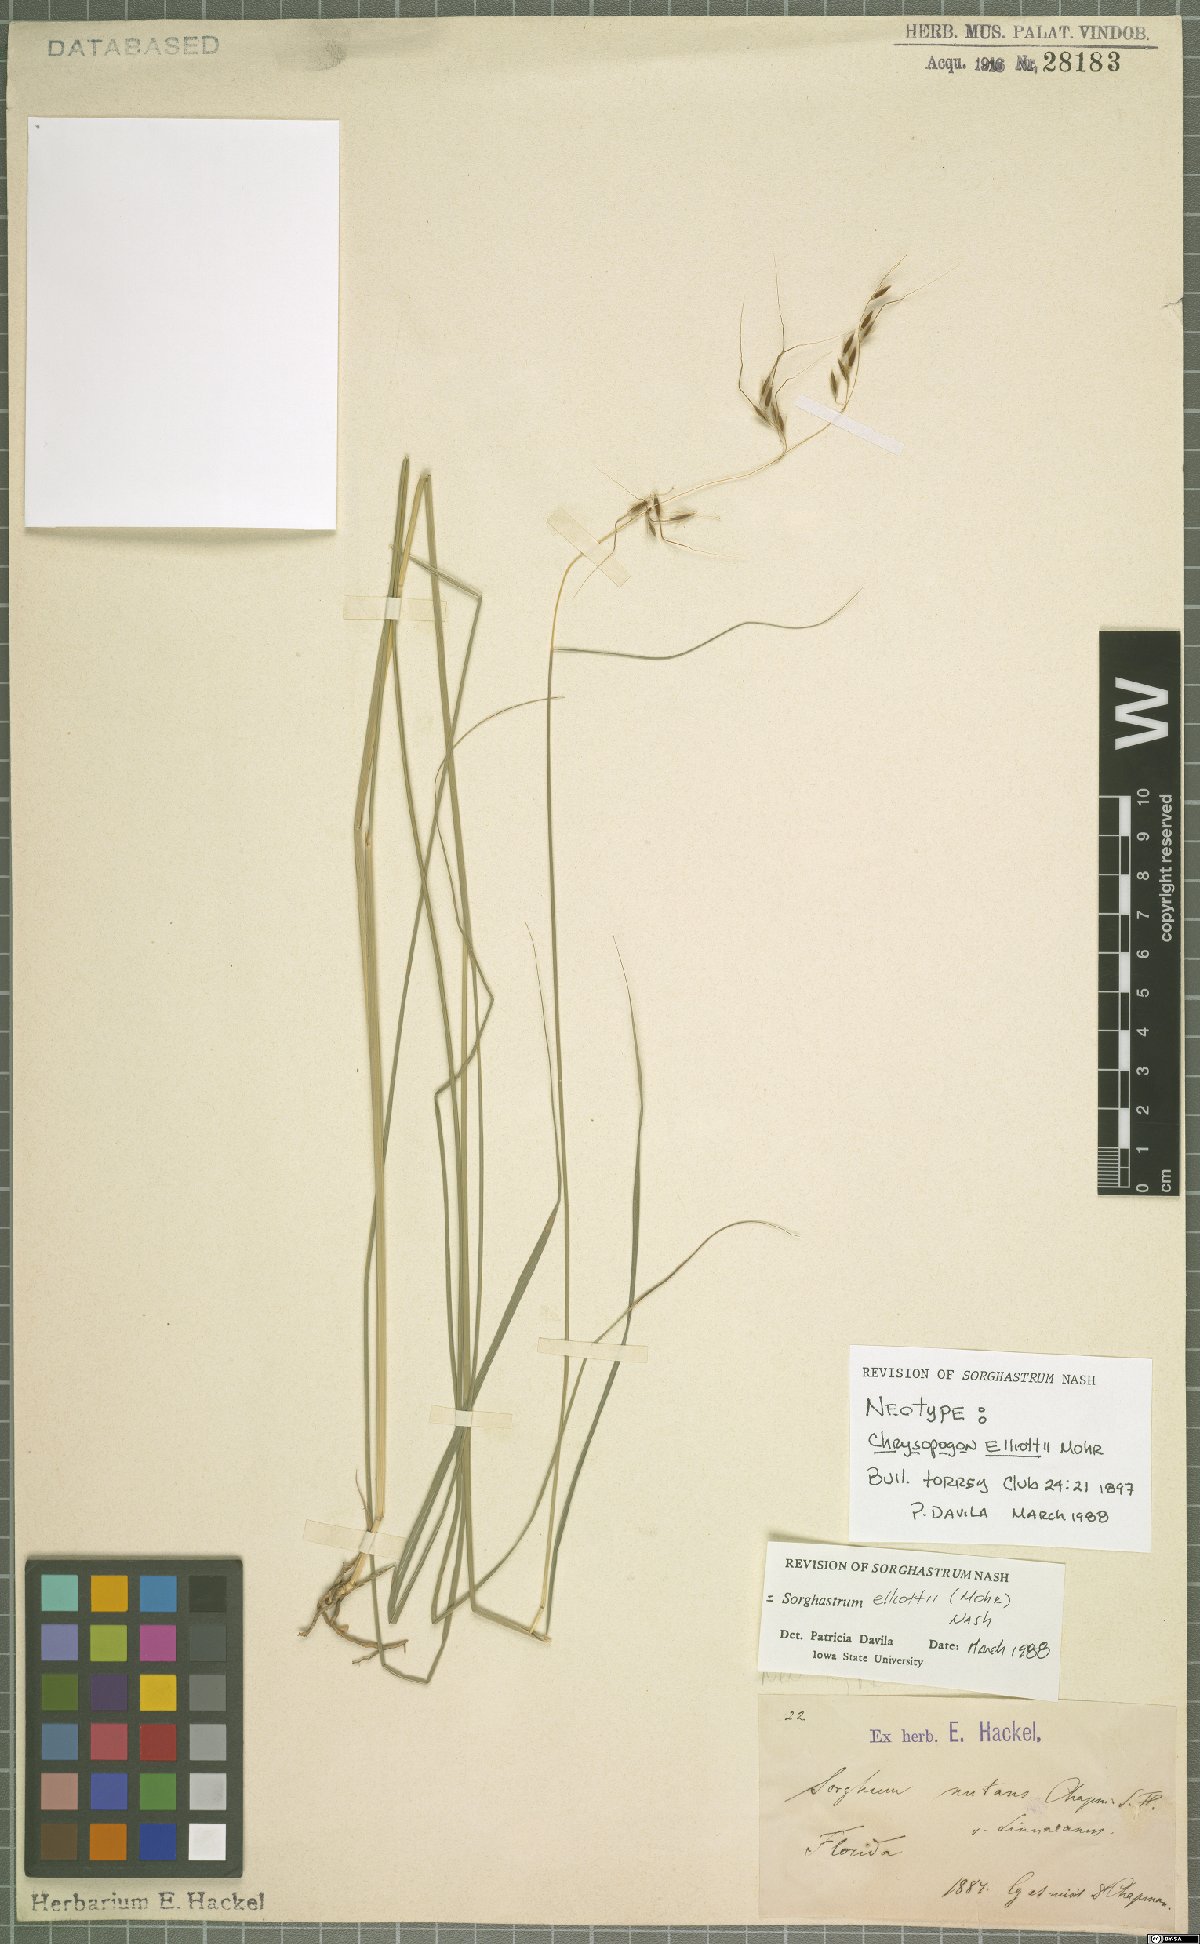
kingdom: Plantae
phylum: Tracheophyta
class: Liliopsida
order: Poales
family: Poaceae
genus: Sorghastrum
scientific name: Sorghastrum elliottii
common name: Slender indian grass
